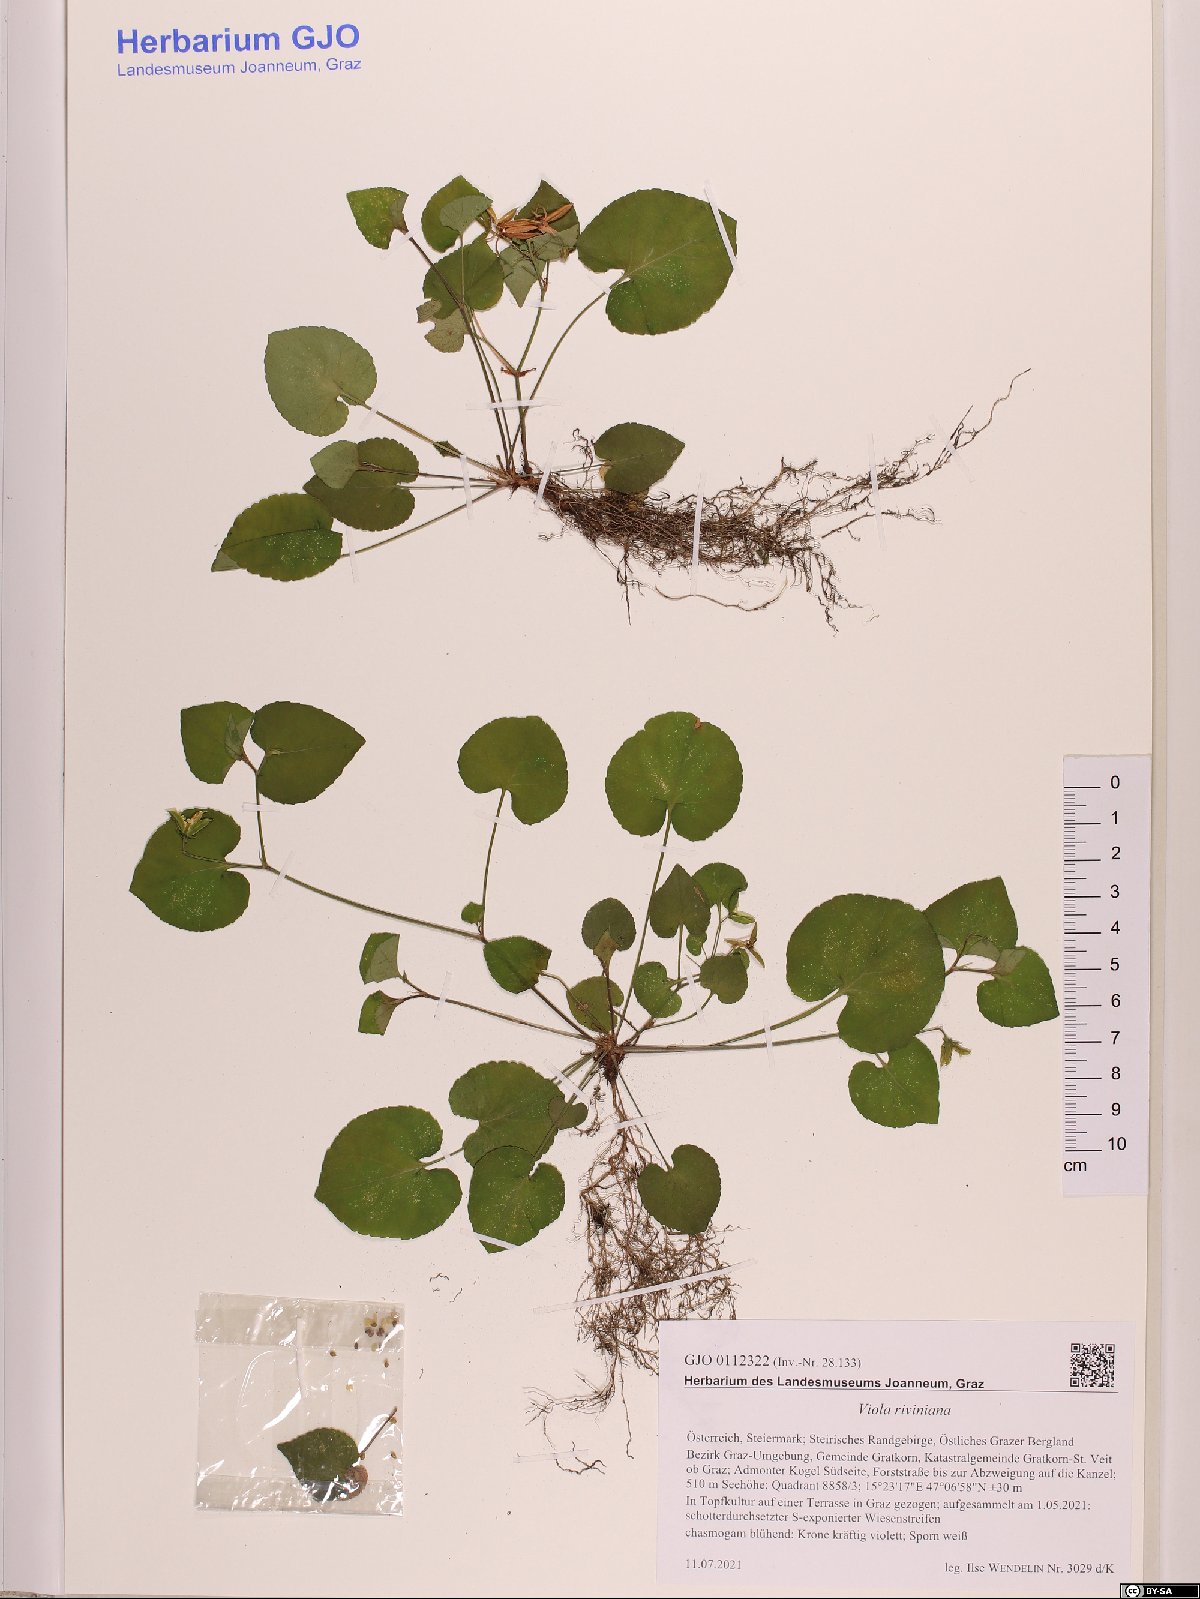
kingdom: Plantae
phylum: Tracheophyta
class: Magnoliopsida
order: Malpighiales
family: Violaceae
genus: Viola
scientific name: Viola riviniana
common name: Common dog-violet
